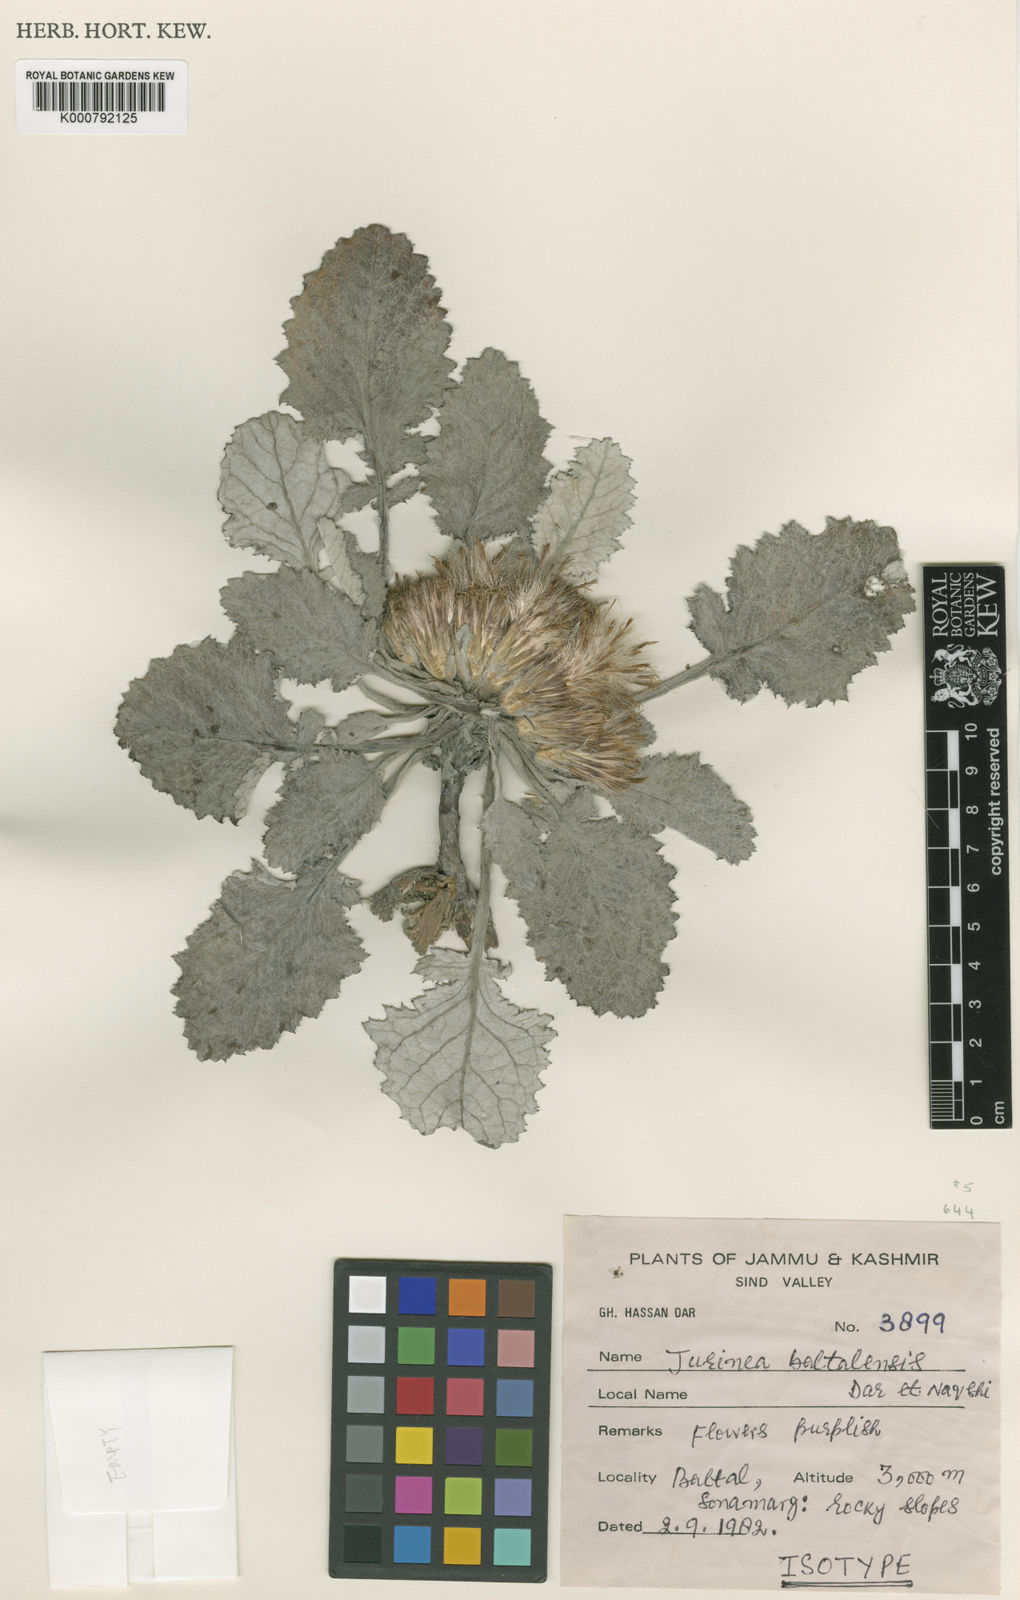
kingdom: Plantae
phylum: Tracheophyta
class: Magnoliopsida
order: Asterales
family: Asteraceae
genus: Jurinea
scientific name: Jurinea
